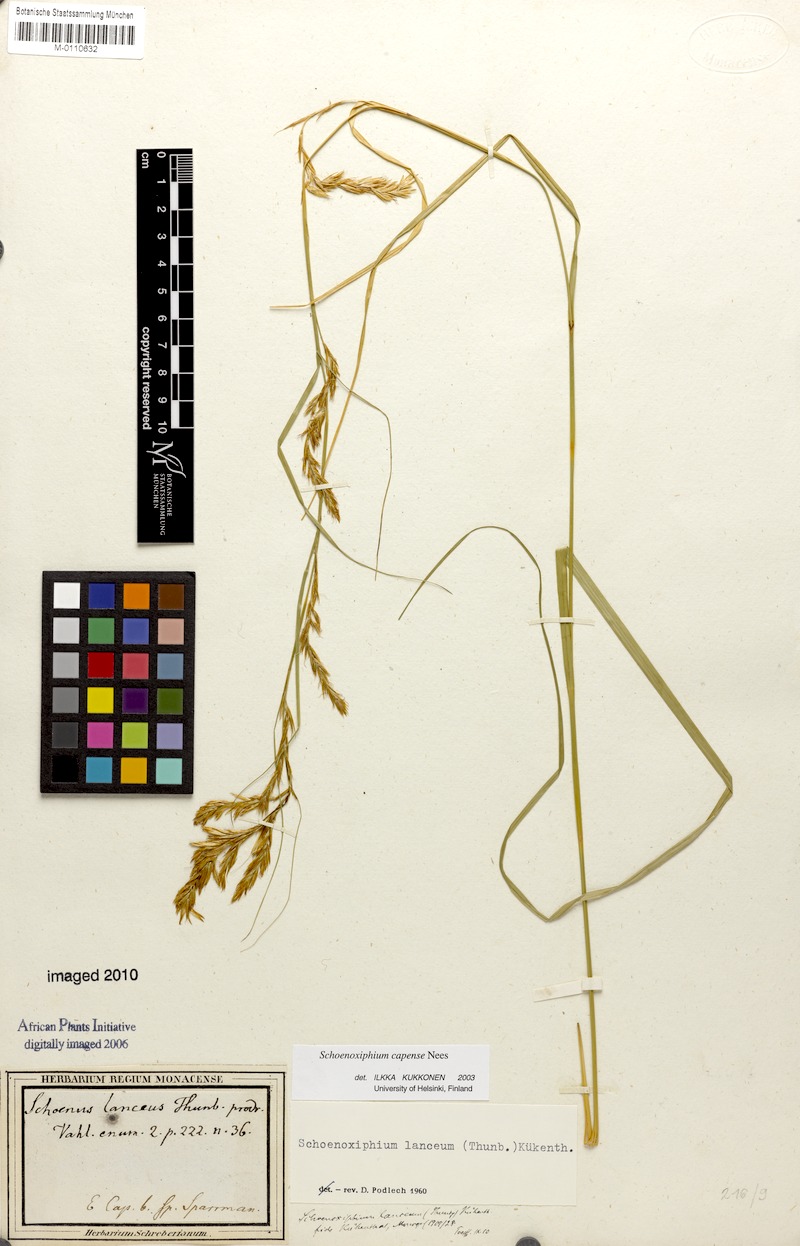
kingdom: Plantae
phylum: Tracheophyta
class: Liliopsida
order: Poales
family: Cyperaceae
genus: Carex
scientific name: Carex lancea
